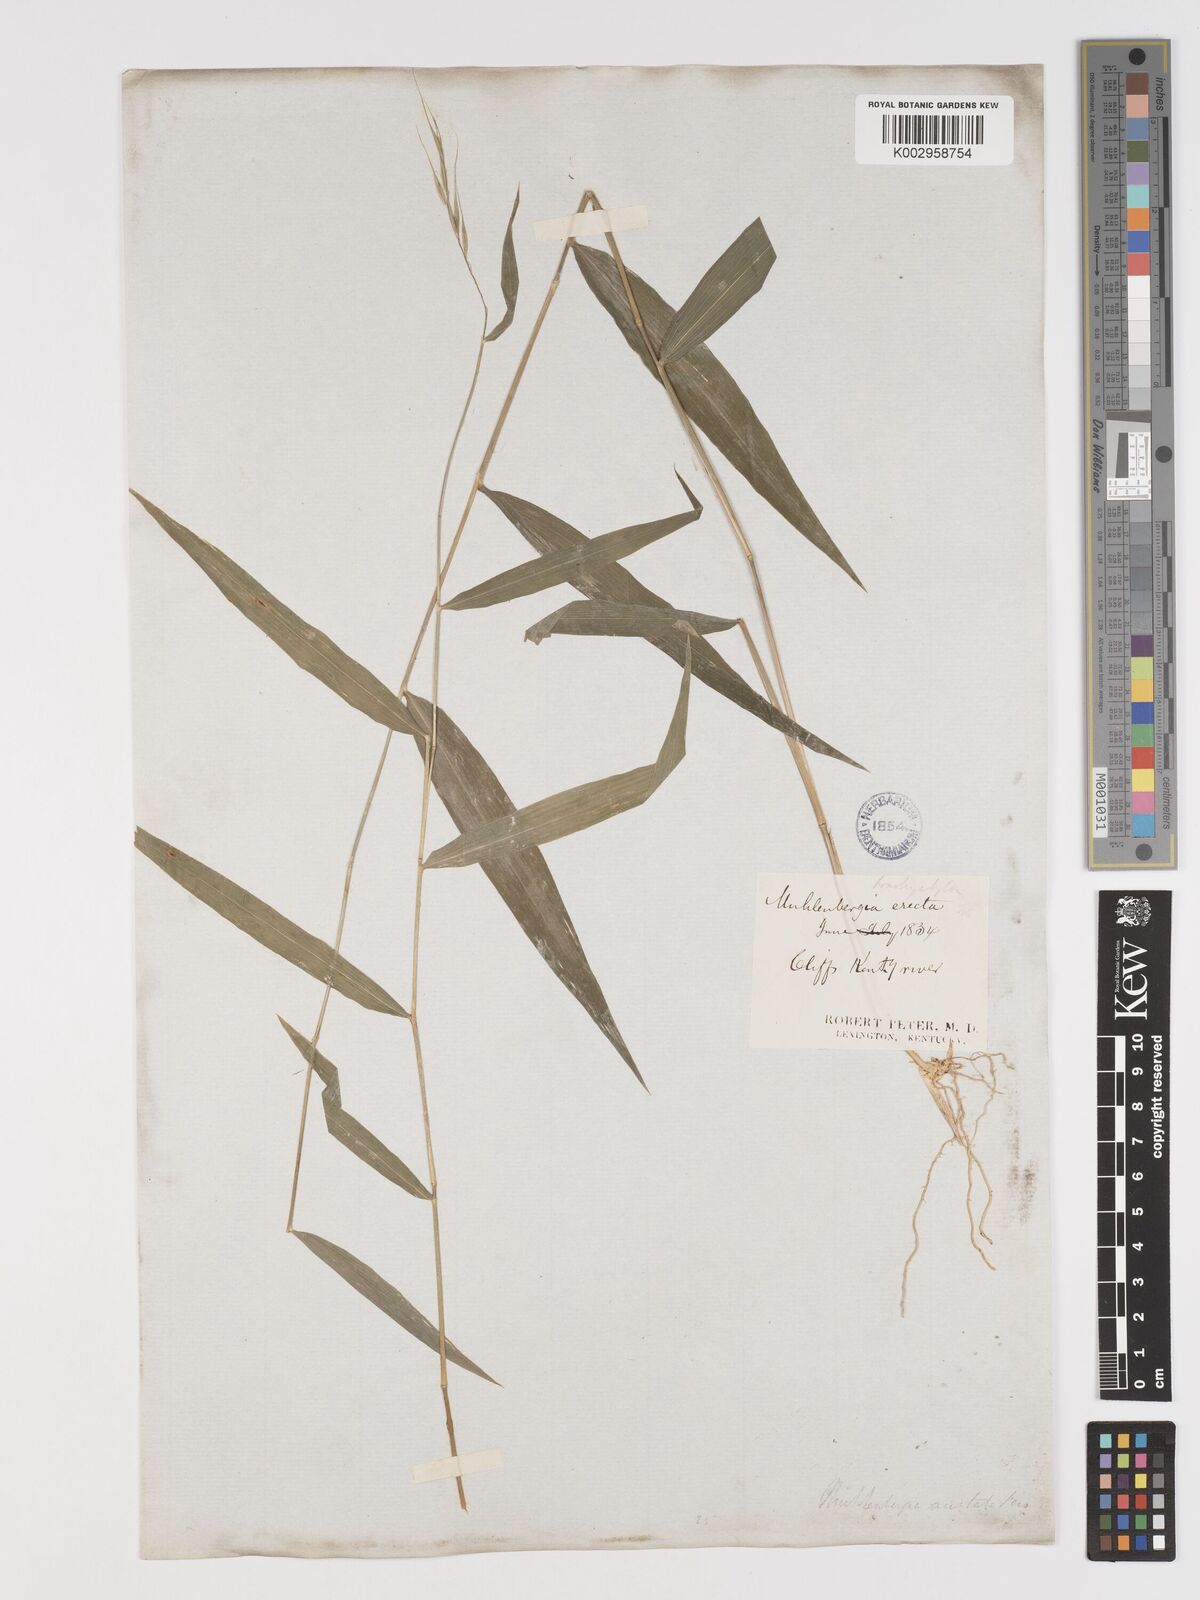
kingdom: Plantae
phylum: Tracheophyta
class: Liliopsida
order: Poales
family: Poaceae
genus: Brachyelytrum
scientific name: Brachyelytrum erectum
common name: Bearded shorthusk
